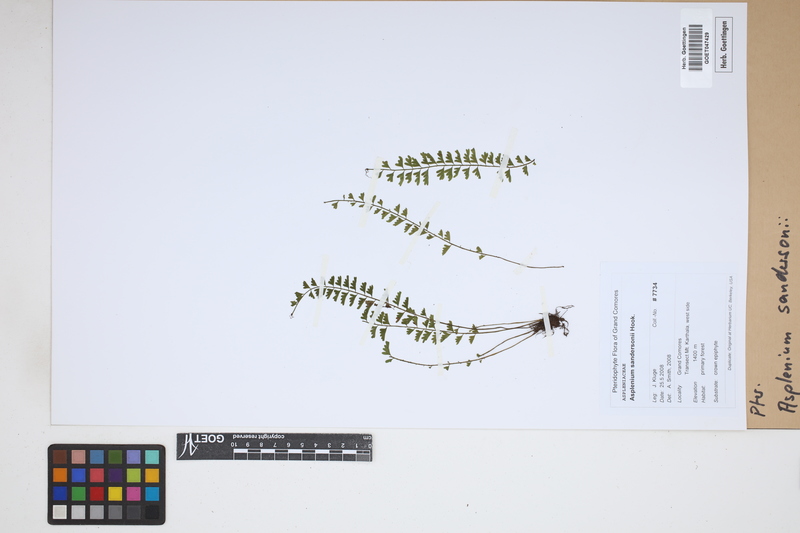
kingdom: Plantae
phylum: Tracheophyta
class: Polypodiopsida
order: Polypodiales
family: Aspleniaceae
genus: Asplenium
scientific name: Asplenium sandersonii
